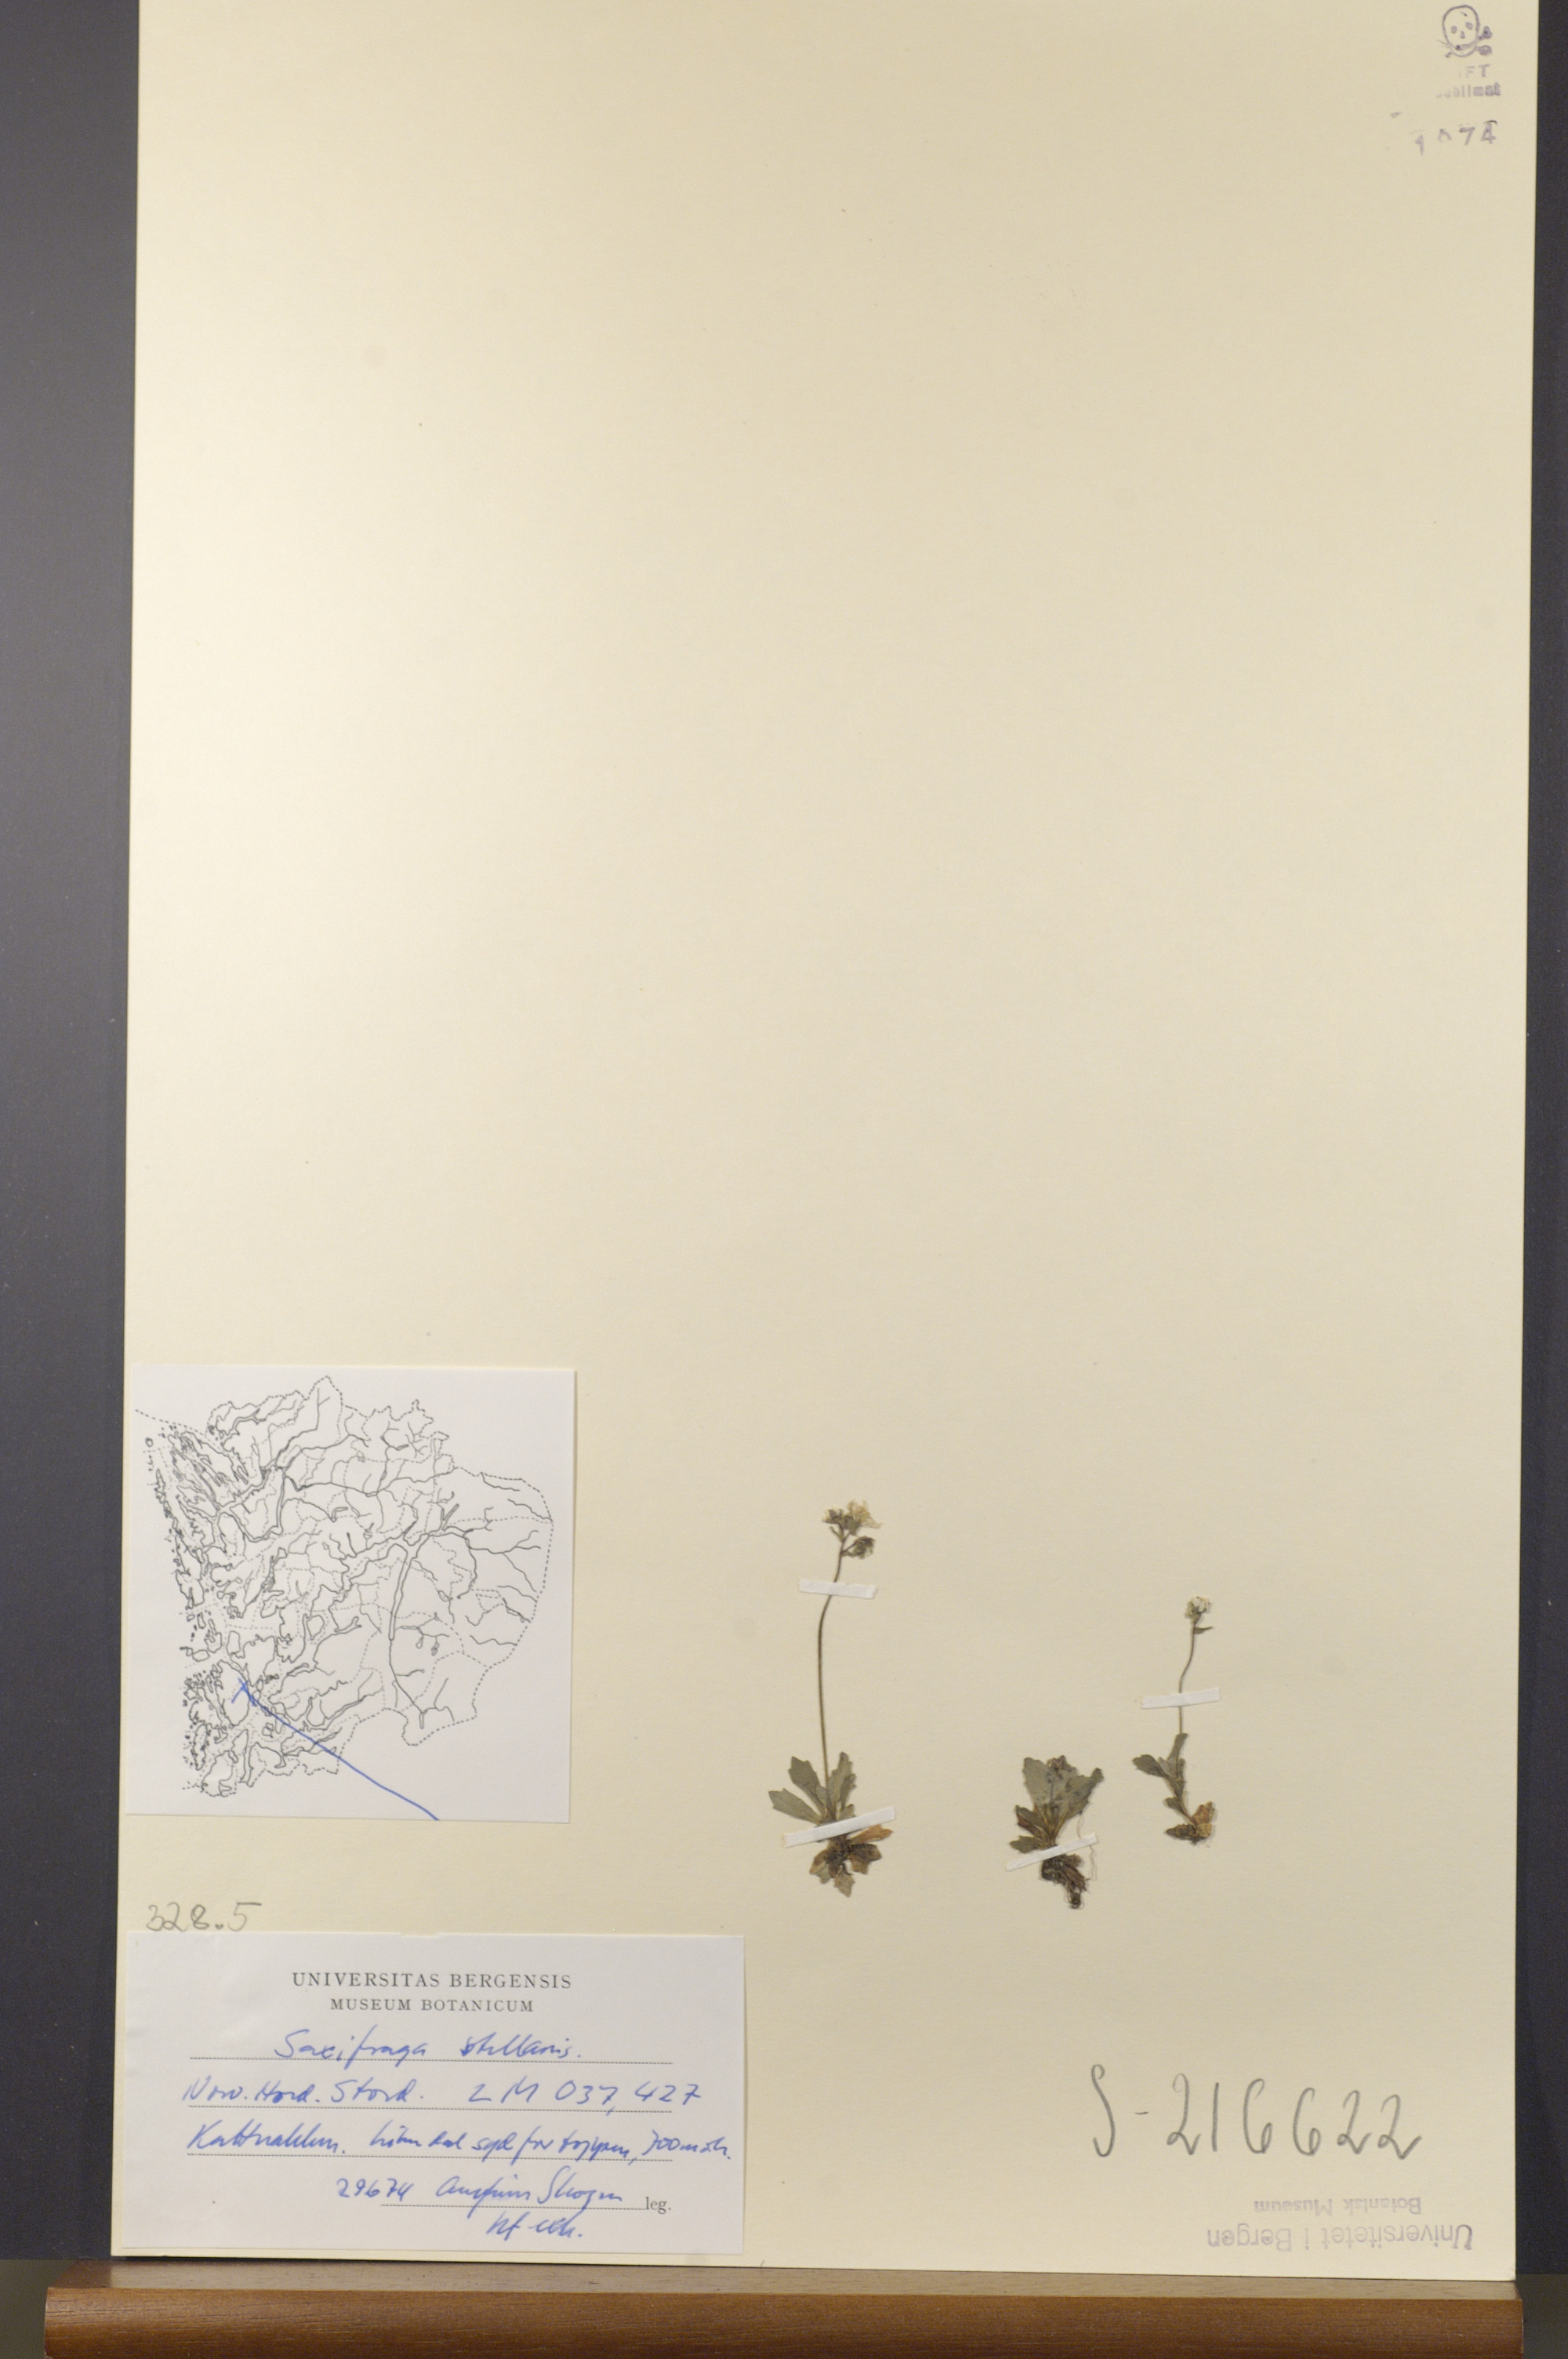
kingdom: Plantae
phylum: Tracheophyta
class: Magnoliopsida
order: Saxifragales
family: Saxifragaceae
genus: Micranthes
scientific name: Micranthes stellaris
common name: Starry saxifrage
